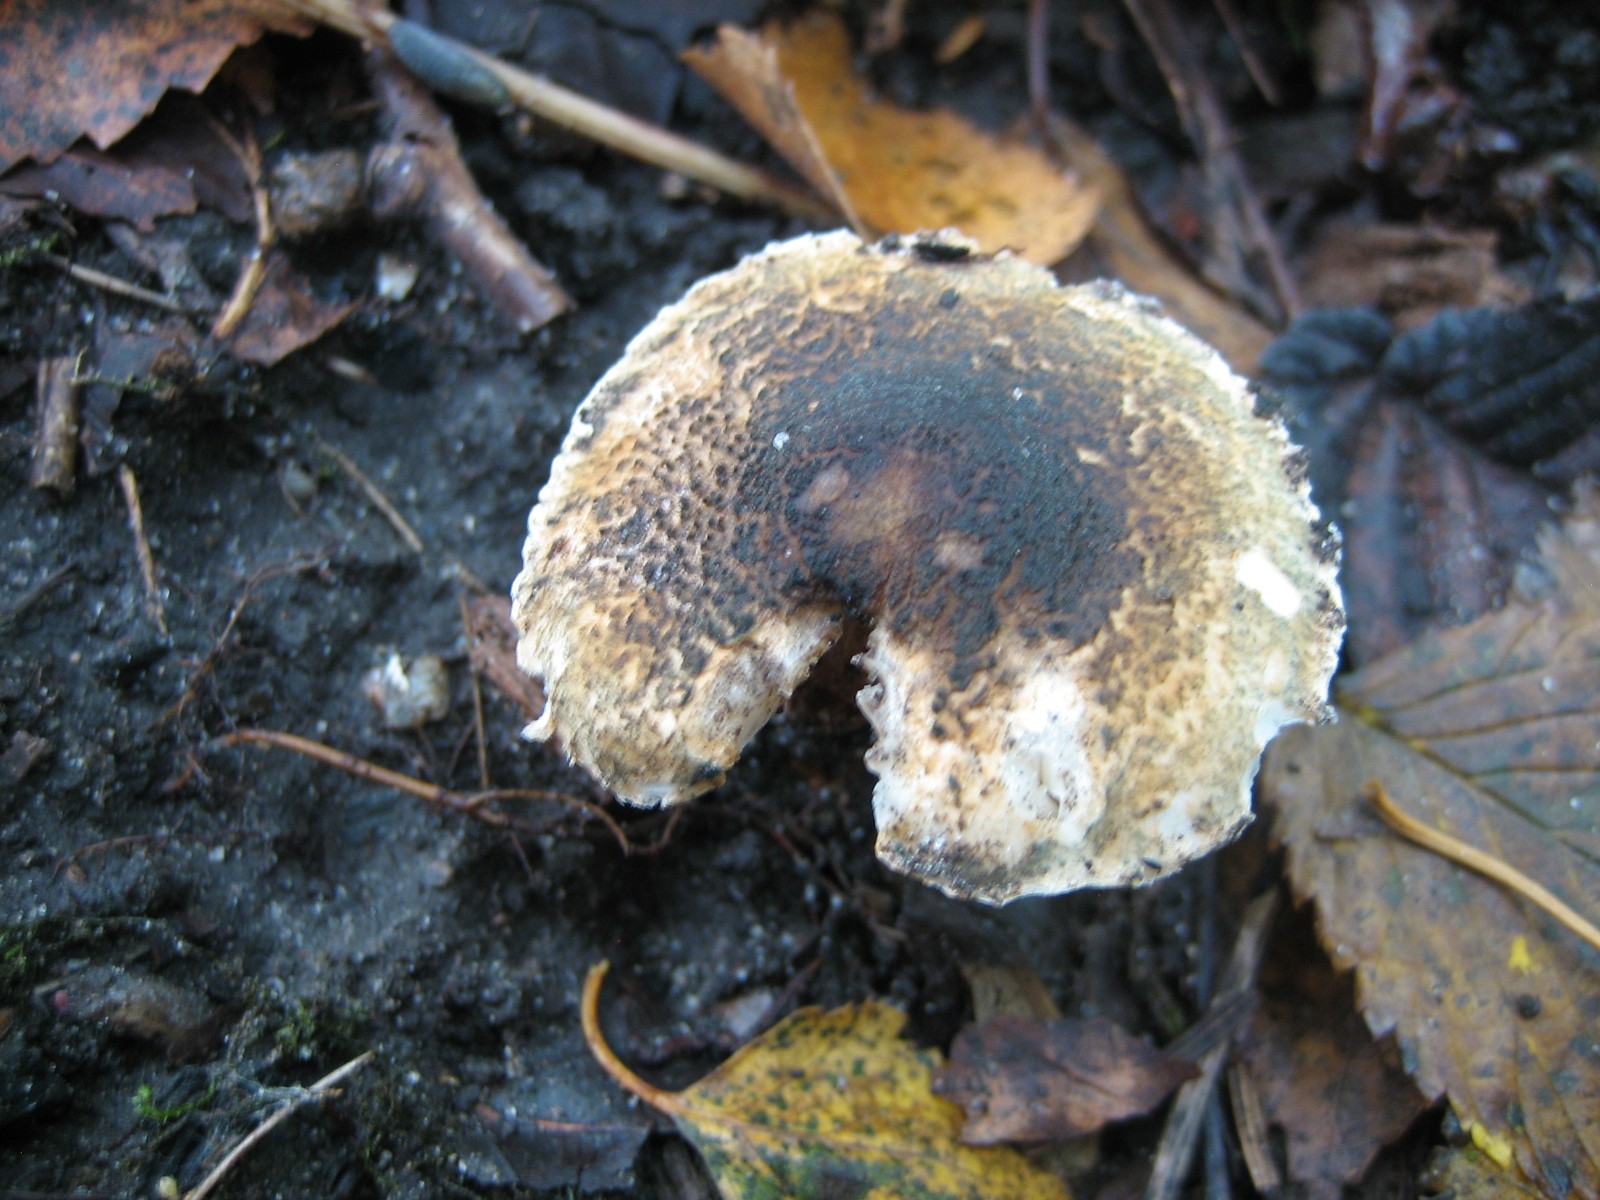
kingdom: Fungi
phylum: Basidiomycota
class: Agaricomycetes
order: Agaricales
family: Agaricaceae
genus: Lepiota
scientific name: Lepiota grangei
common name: grønskællet parasolhat
